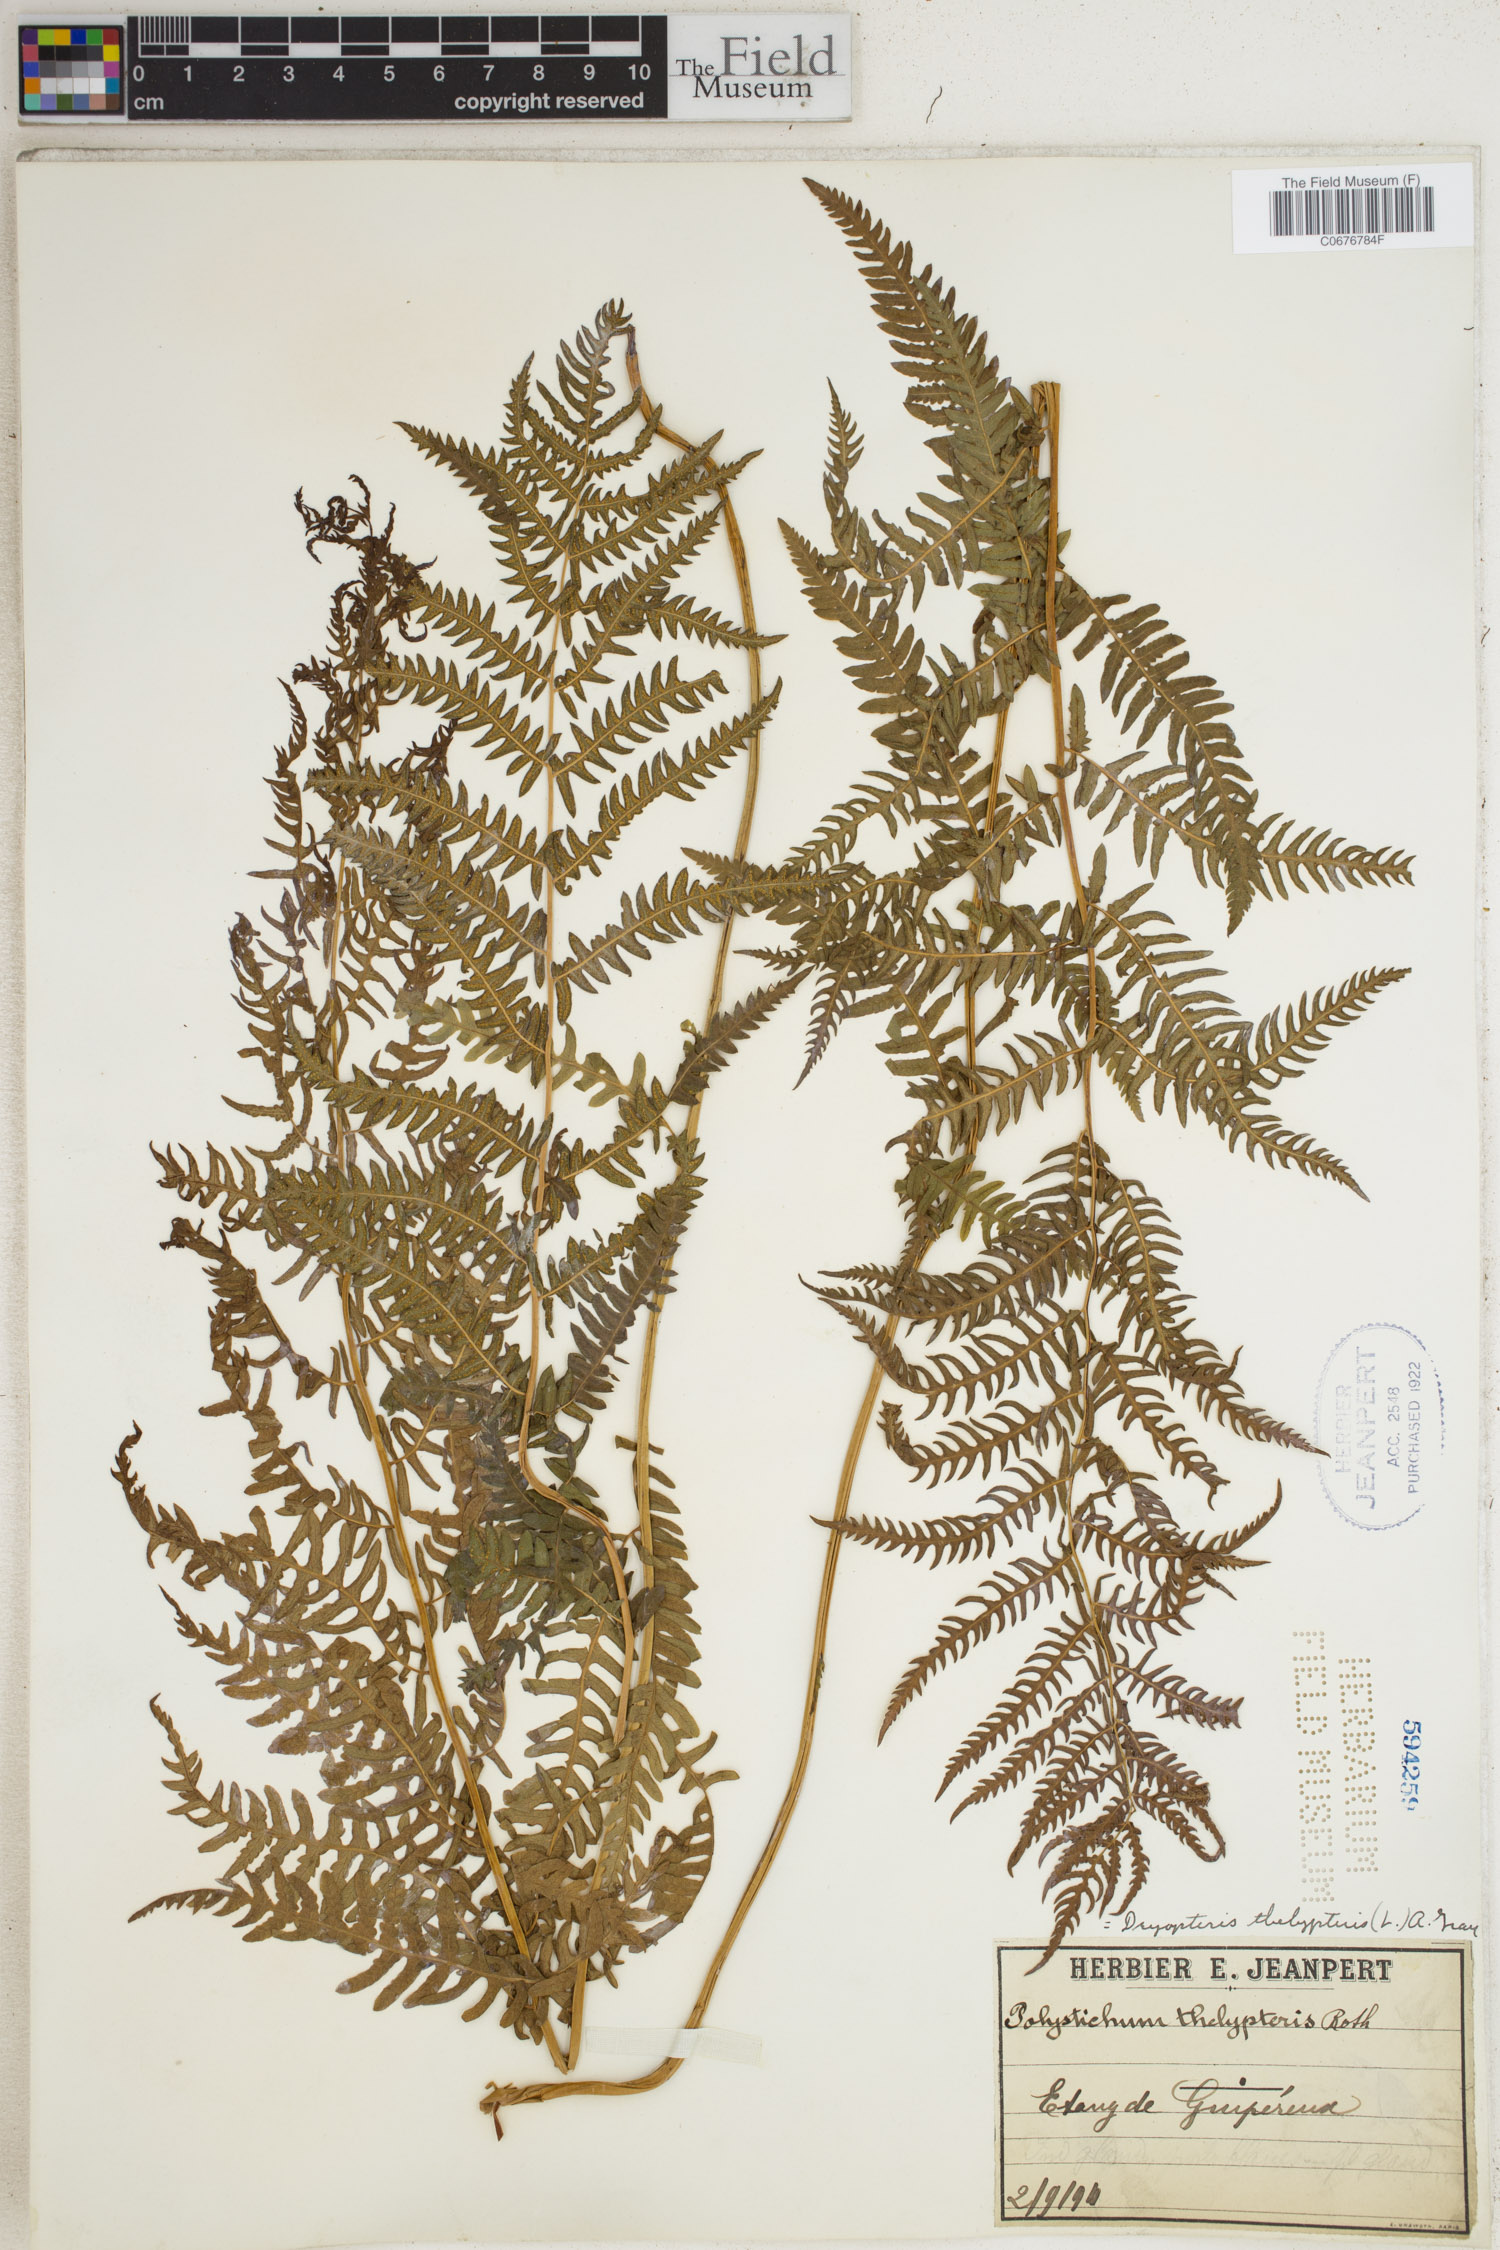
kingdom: Plantae
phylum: Tracheophyta
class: Polypodiopsida
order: Polypodiales
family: Thelypteridaceae
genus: Thelypteris
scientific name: Thelypteris palustris
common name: Marsh fern
